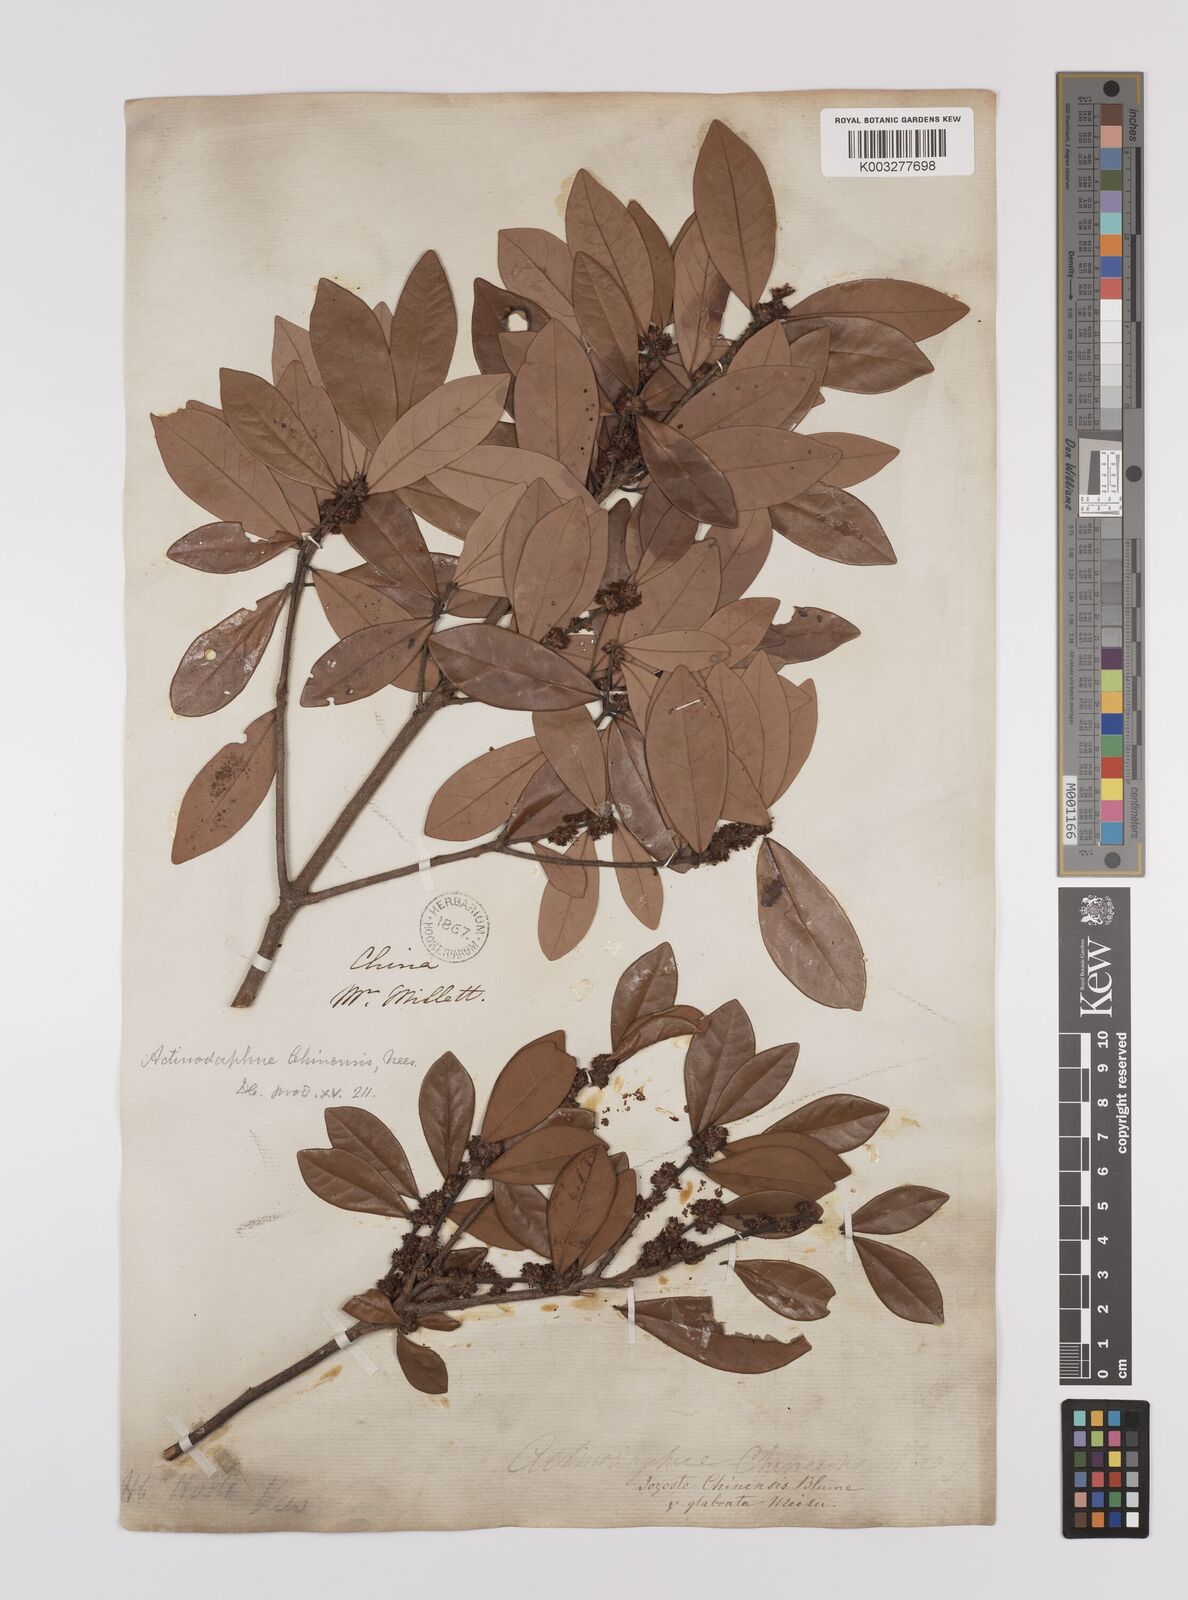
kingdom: Plantae
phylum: Tracheophyta
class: Magnoliopsida
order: Laurales
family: Lauraceae
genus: Litsea
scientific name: Litsea rotundifolia
